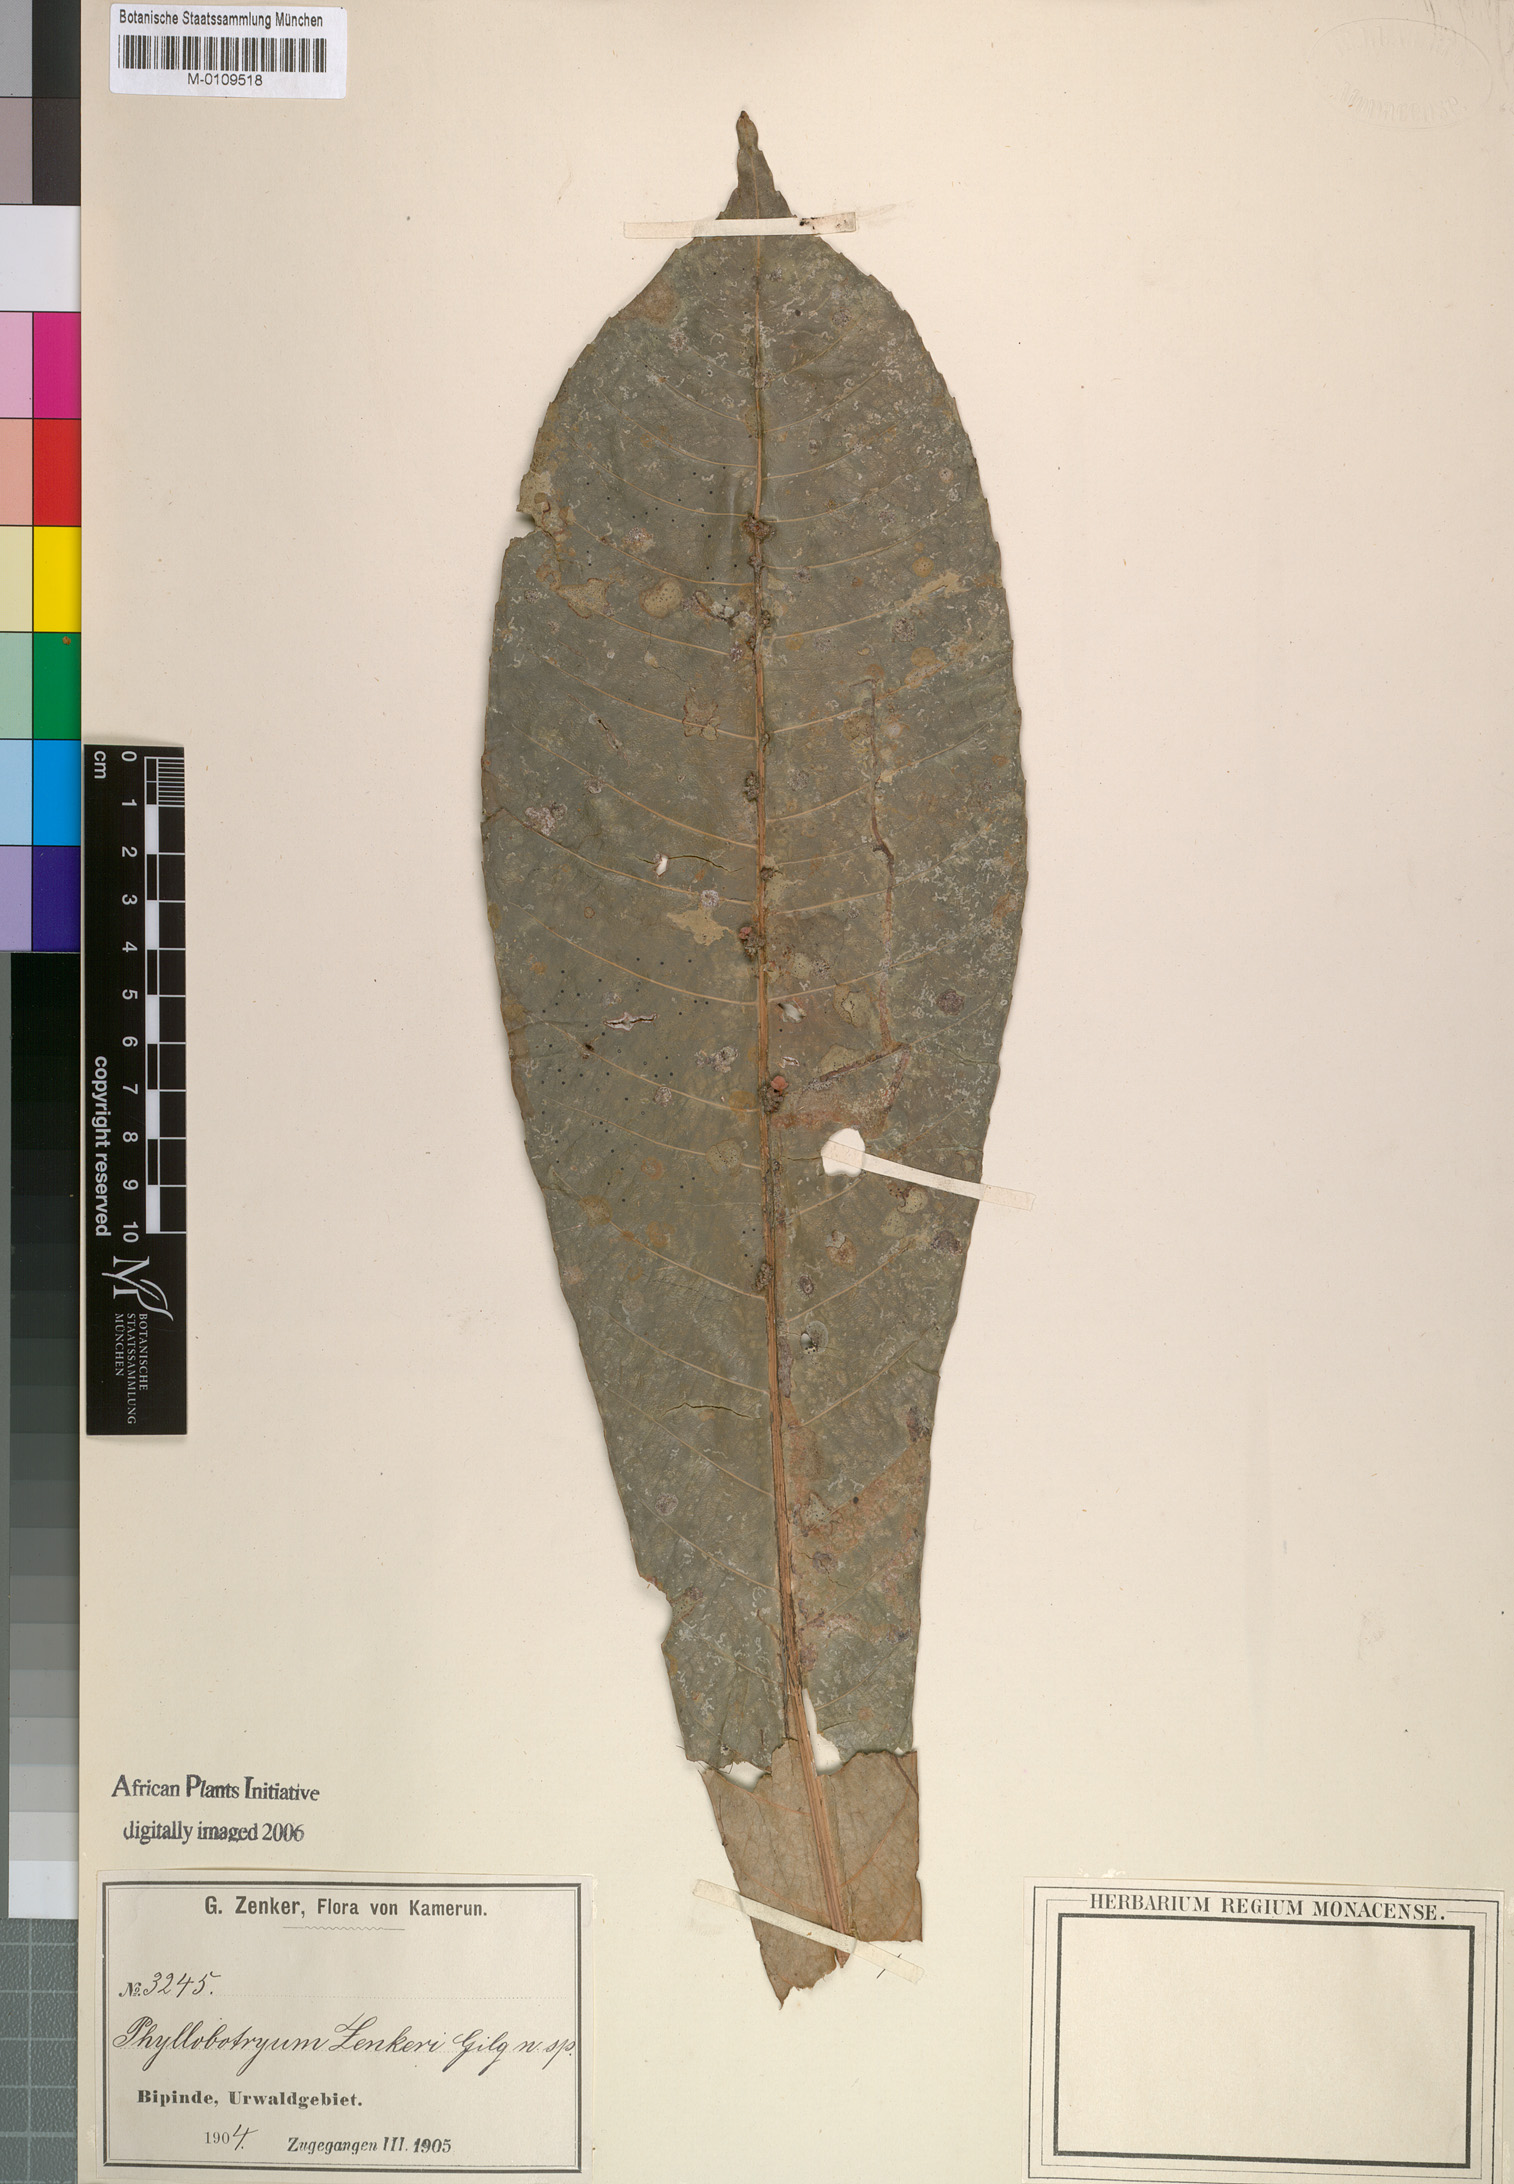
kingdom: Plantae
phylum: Tracheophyta
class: Magnoliopsida
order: Malpighiales
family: Flacourtiaceae
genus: Phyllobotryum
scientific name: Phyllobotryum zenkeri
